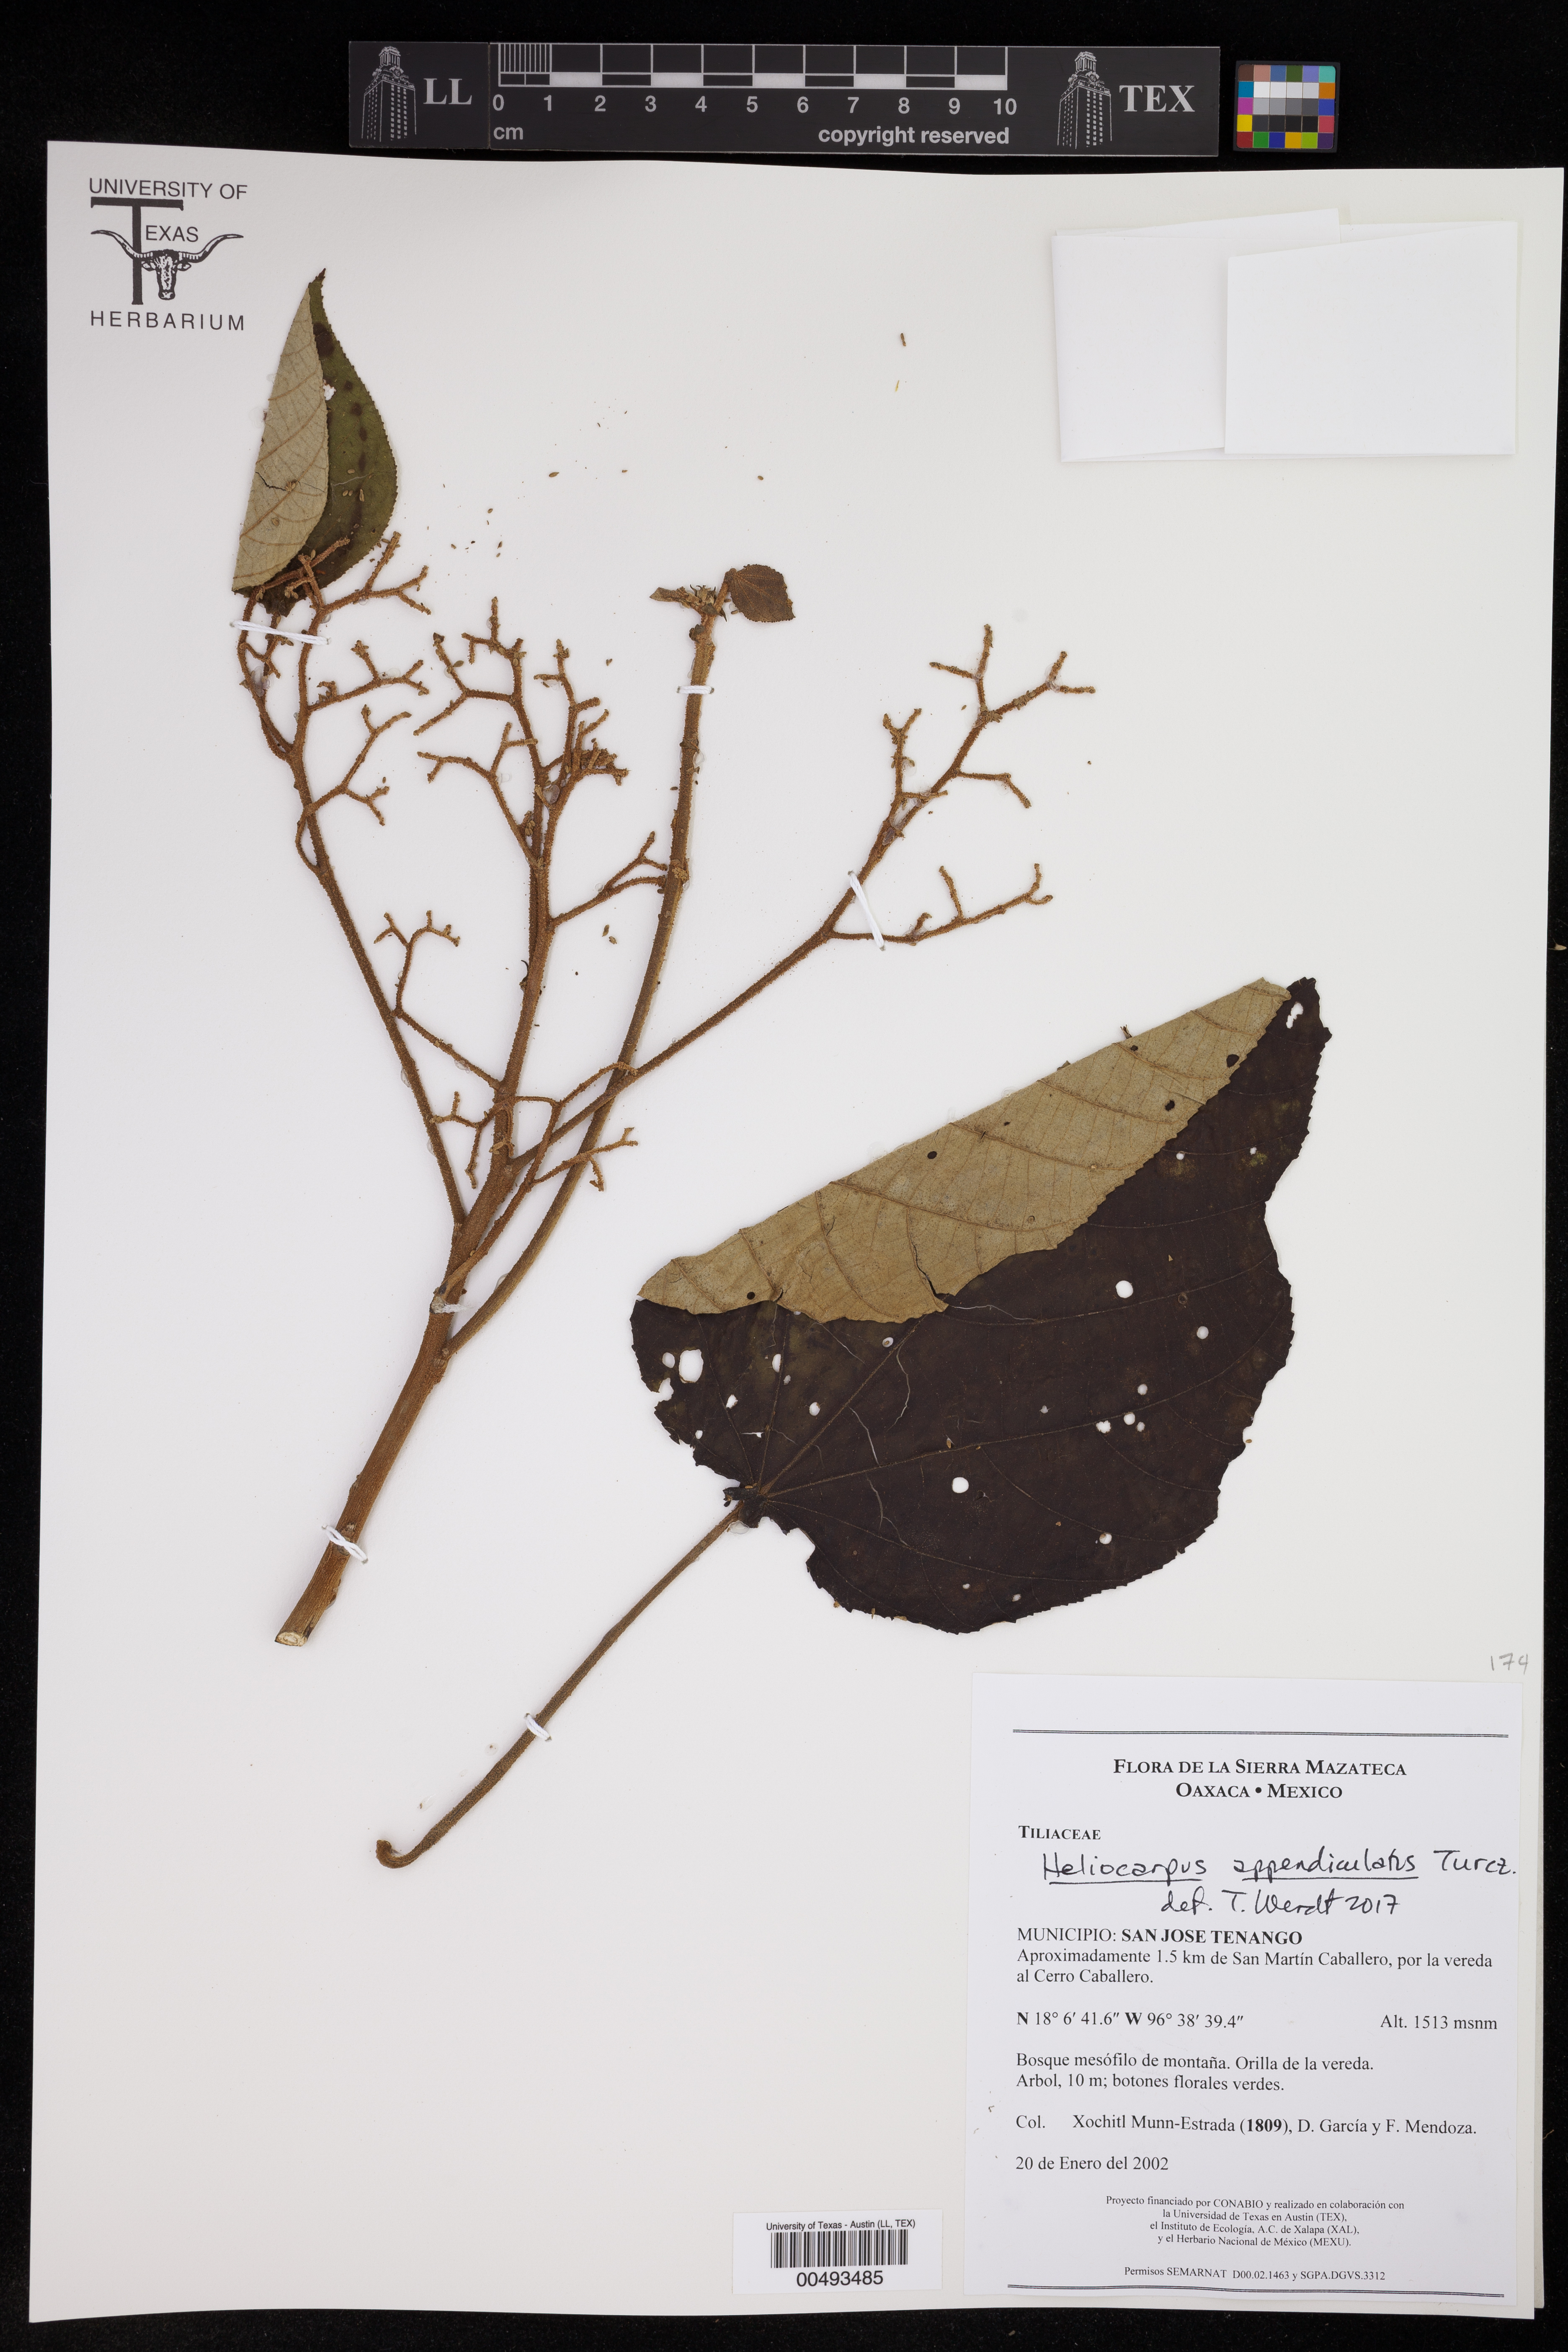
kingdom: Plantae
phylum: Tracheophyta
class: Magnoliopsida
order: Malvales
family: Malvaceae
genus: Heliocarpus
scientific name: Heliocarpus appendiculatus
